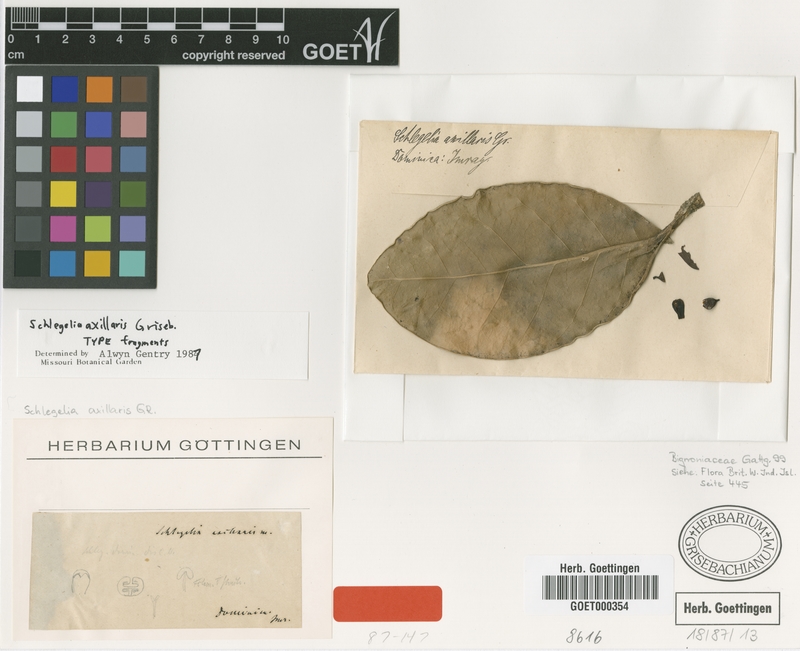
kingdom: Plantae
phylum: Tracheophyta
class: Magnoliopsida
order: Lamiales
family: Schlegeliaceae
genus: Schlegelia
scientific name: Schlegelia axillaris
